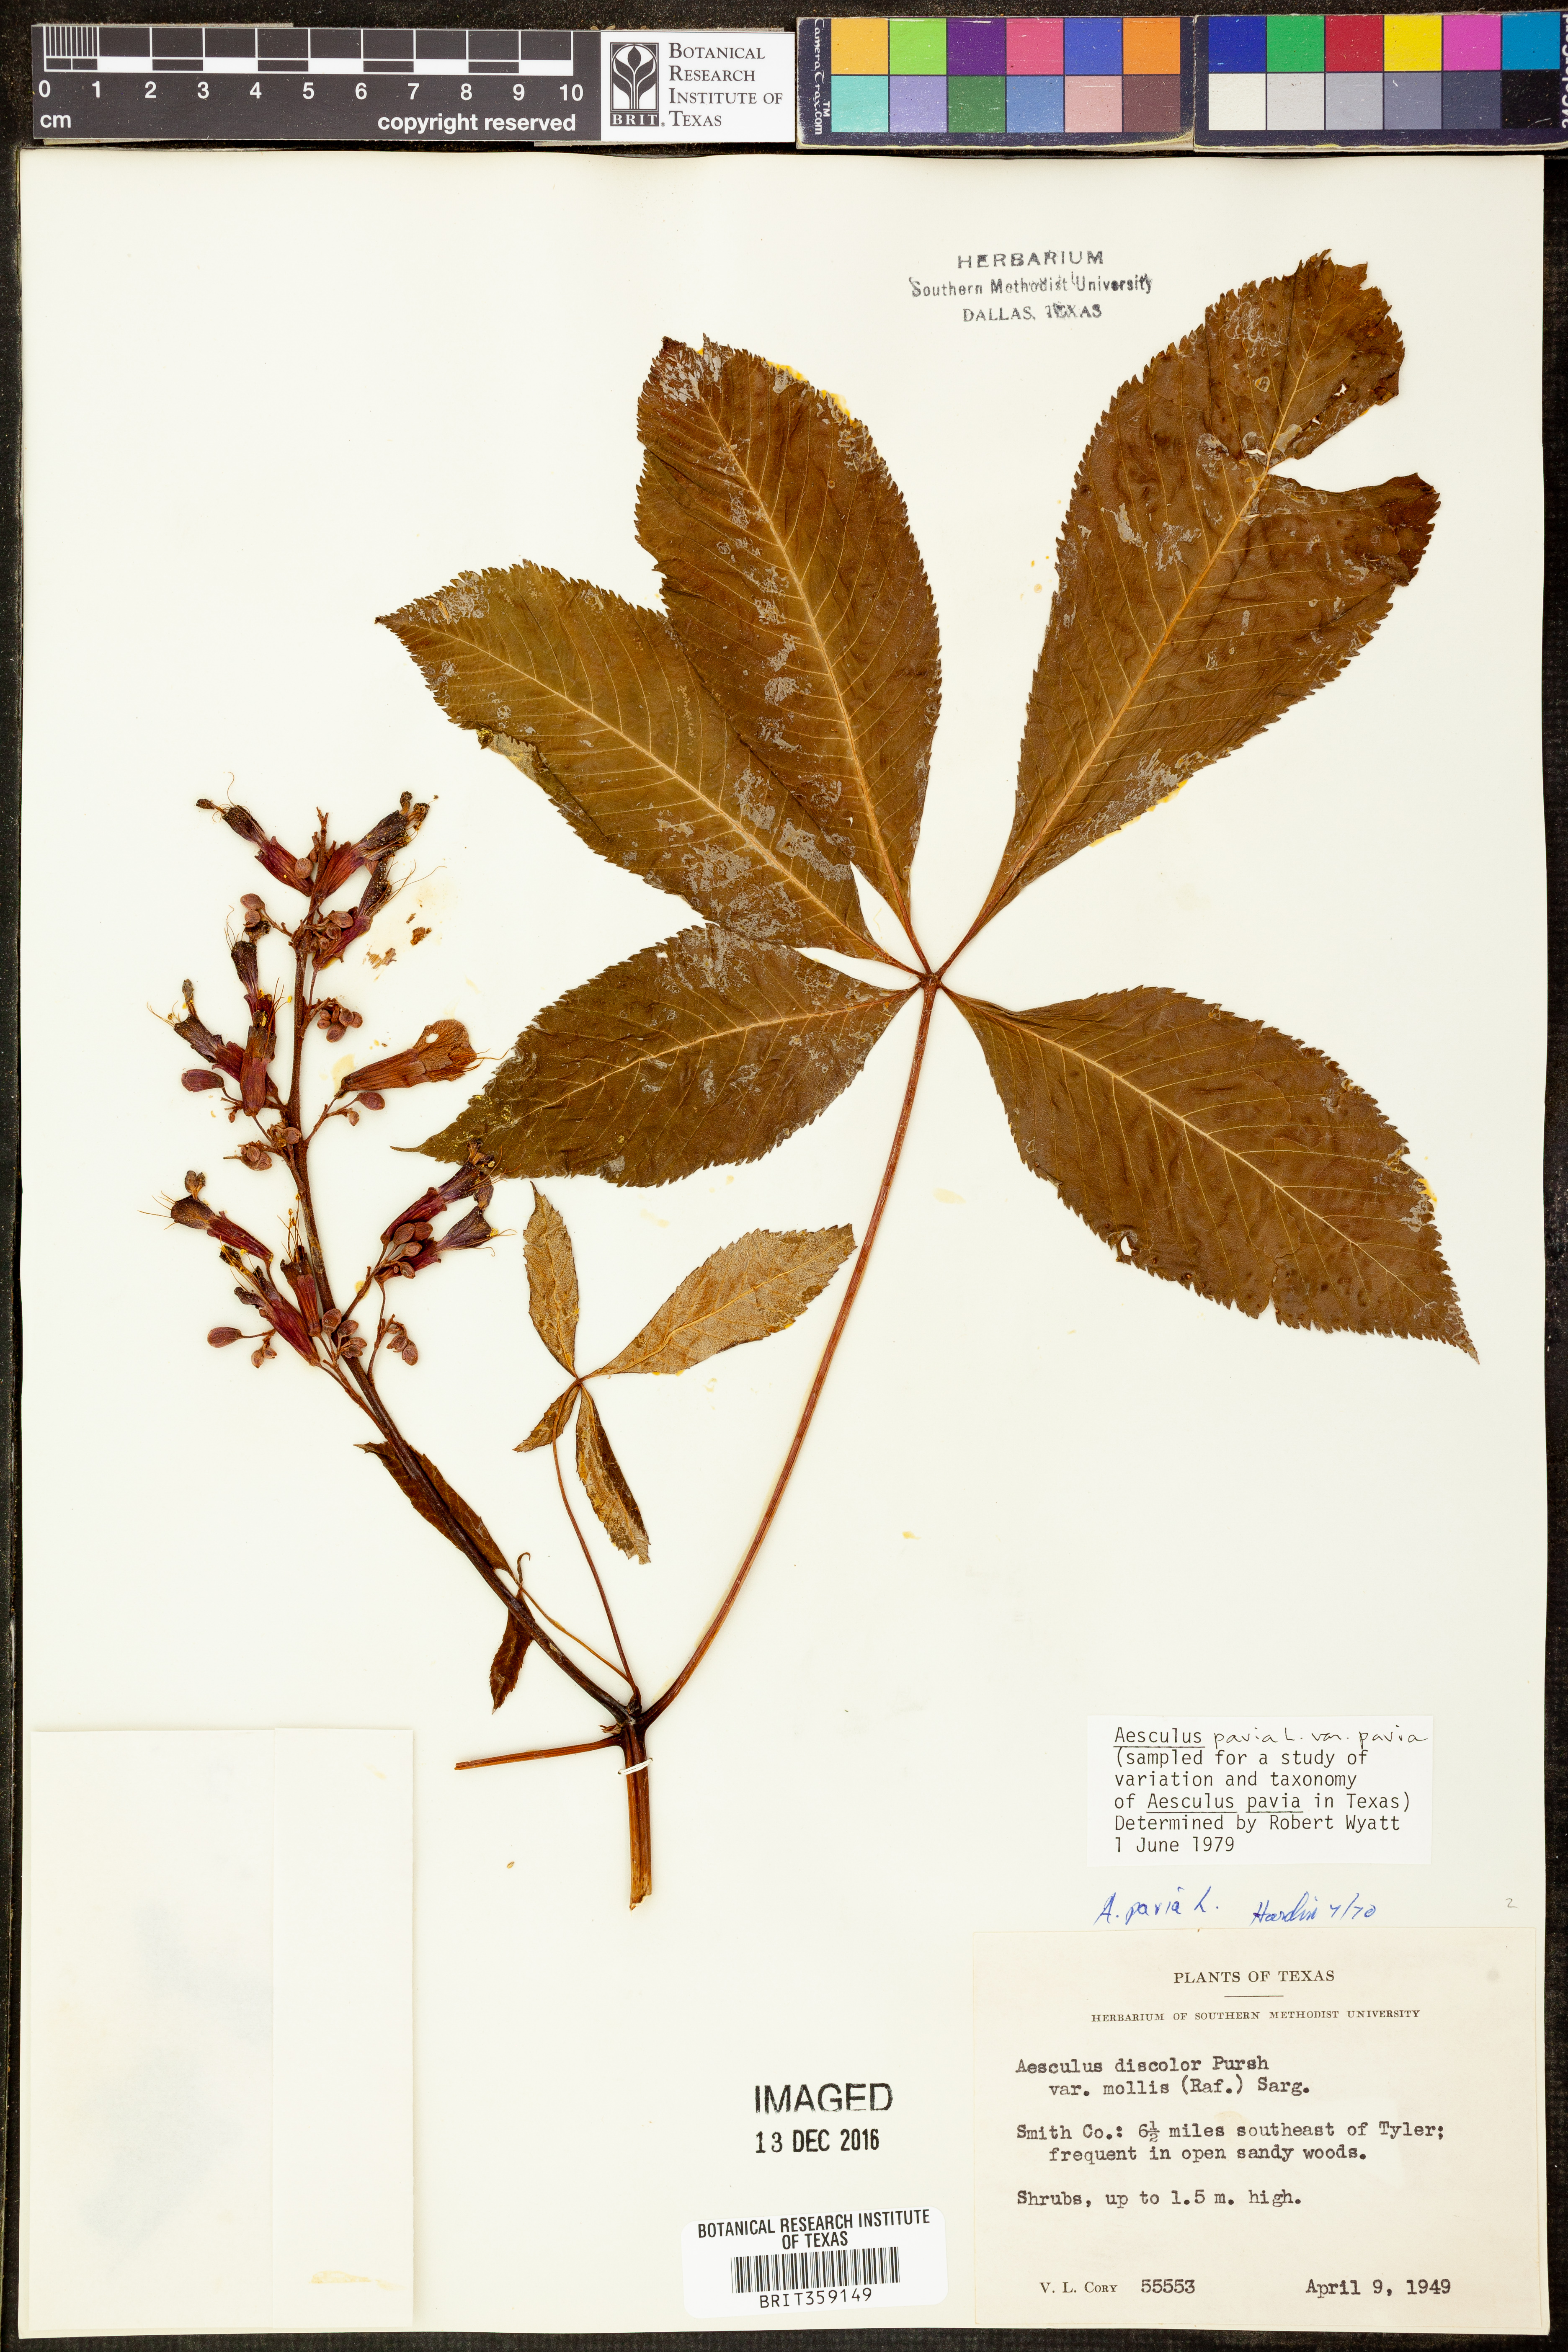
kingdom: Plantae
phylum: Tracheophyta
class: Magnoliopsida
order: Sapindales
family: Sapindaceae
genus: Aesculus
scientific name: Aesculus pavia
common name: Red buckeye
